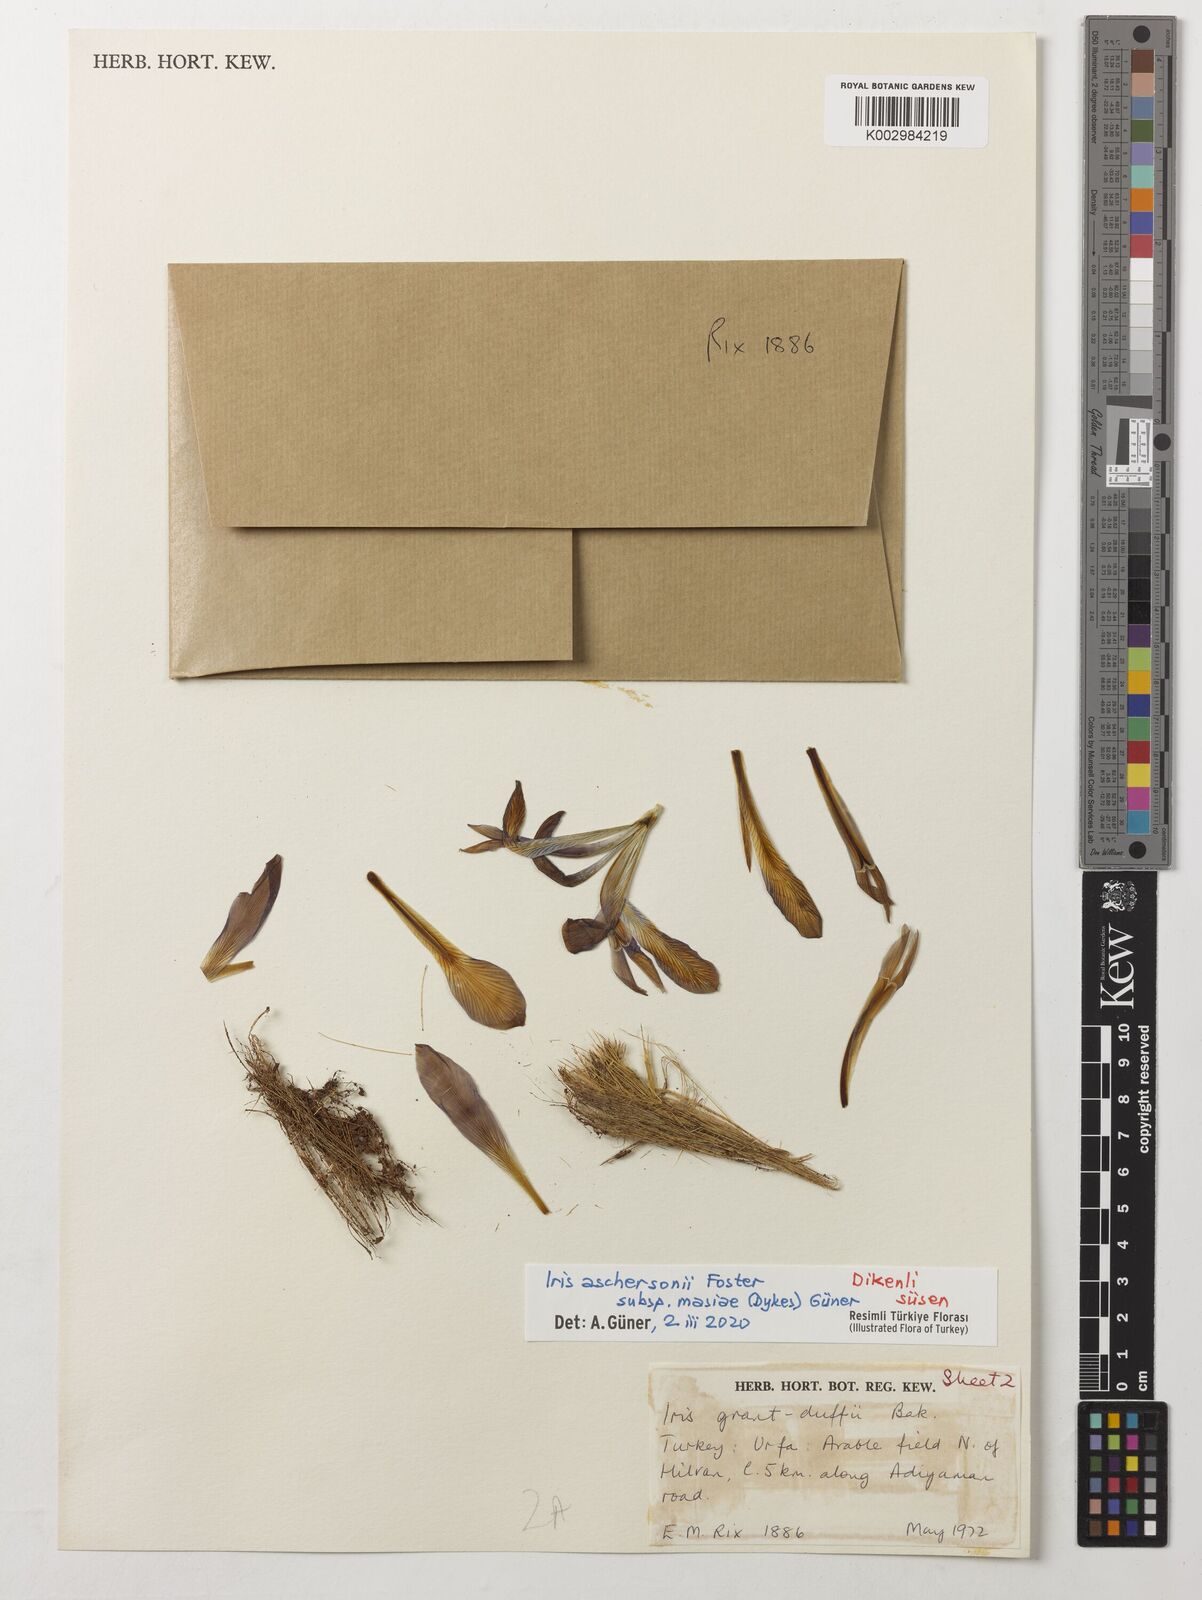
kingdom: Plantae
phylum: Tracheophyta
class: Liliopsida
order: Asparagales
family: Iridaceae
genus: Iris
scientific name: Iris grant-duffii
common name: Grant duff's iris
